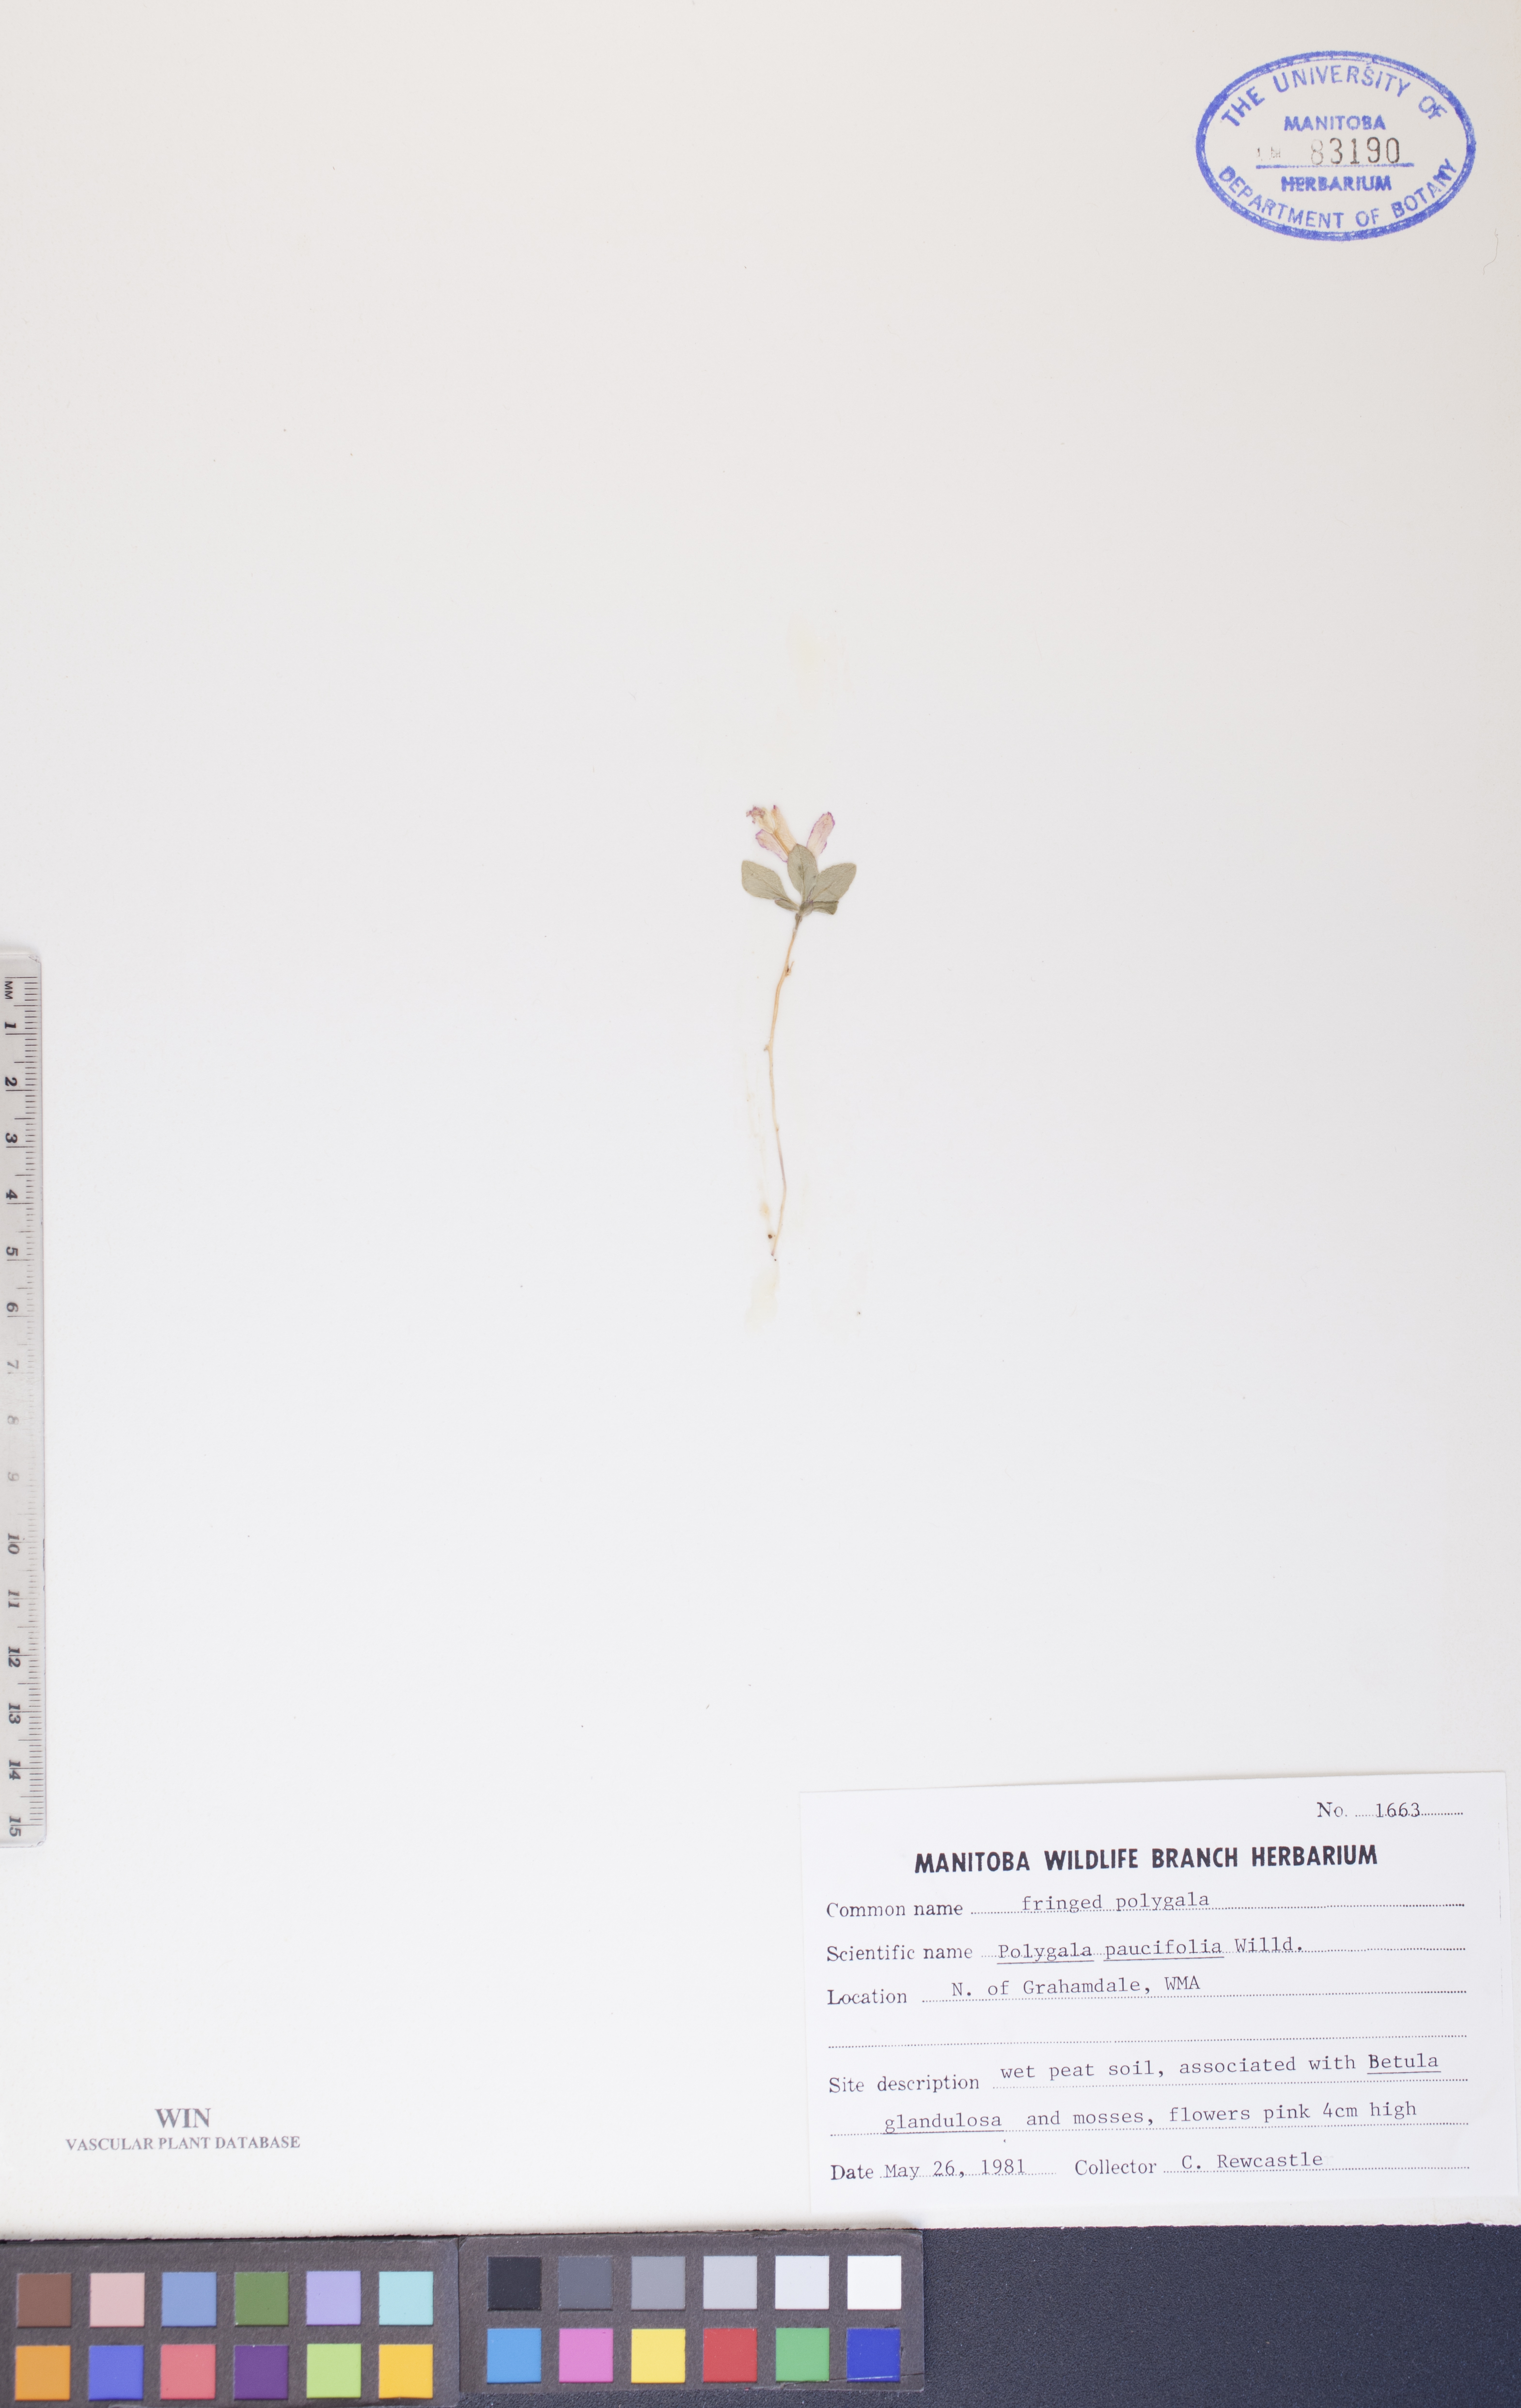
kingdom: Plantae
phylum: Tracheophyta
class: Magnoliopsida
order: Fabales
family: Polygalaceae
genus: Polygaloides
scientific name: Polygaloides paucifolia
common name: Bird-on-the-wing
